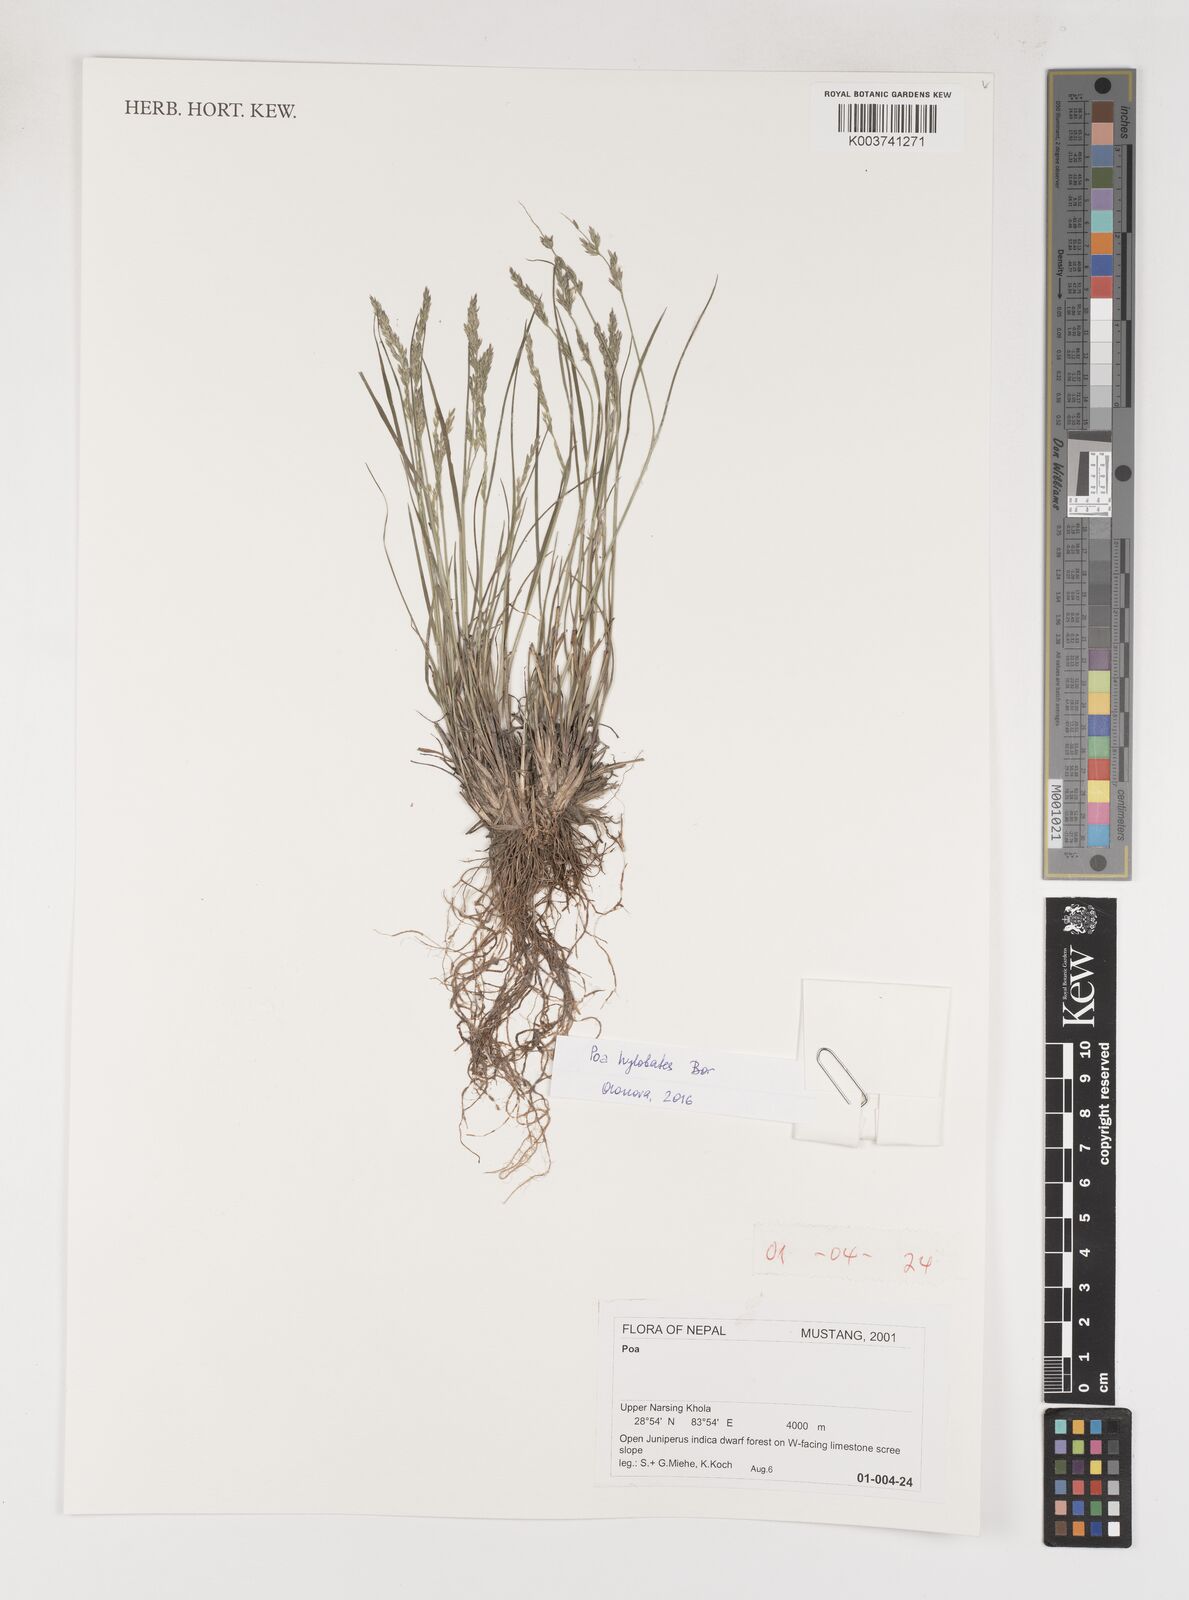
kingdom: Plantae
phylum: Tracheophyta
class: Liliopsida
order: Poales
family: Poaceae
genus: Poa
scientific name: Poa
